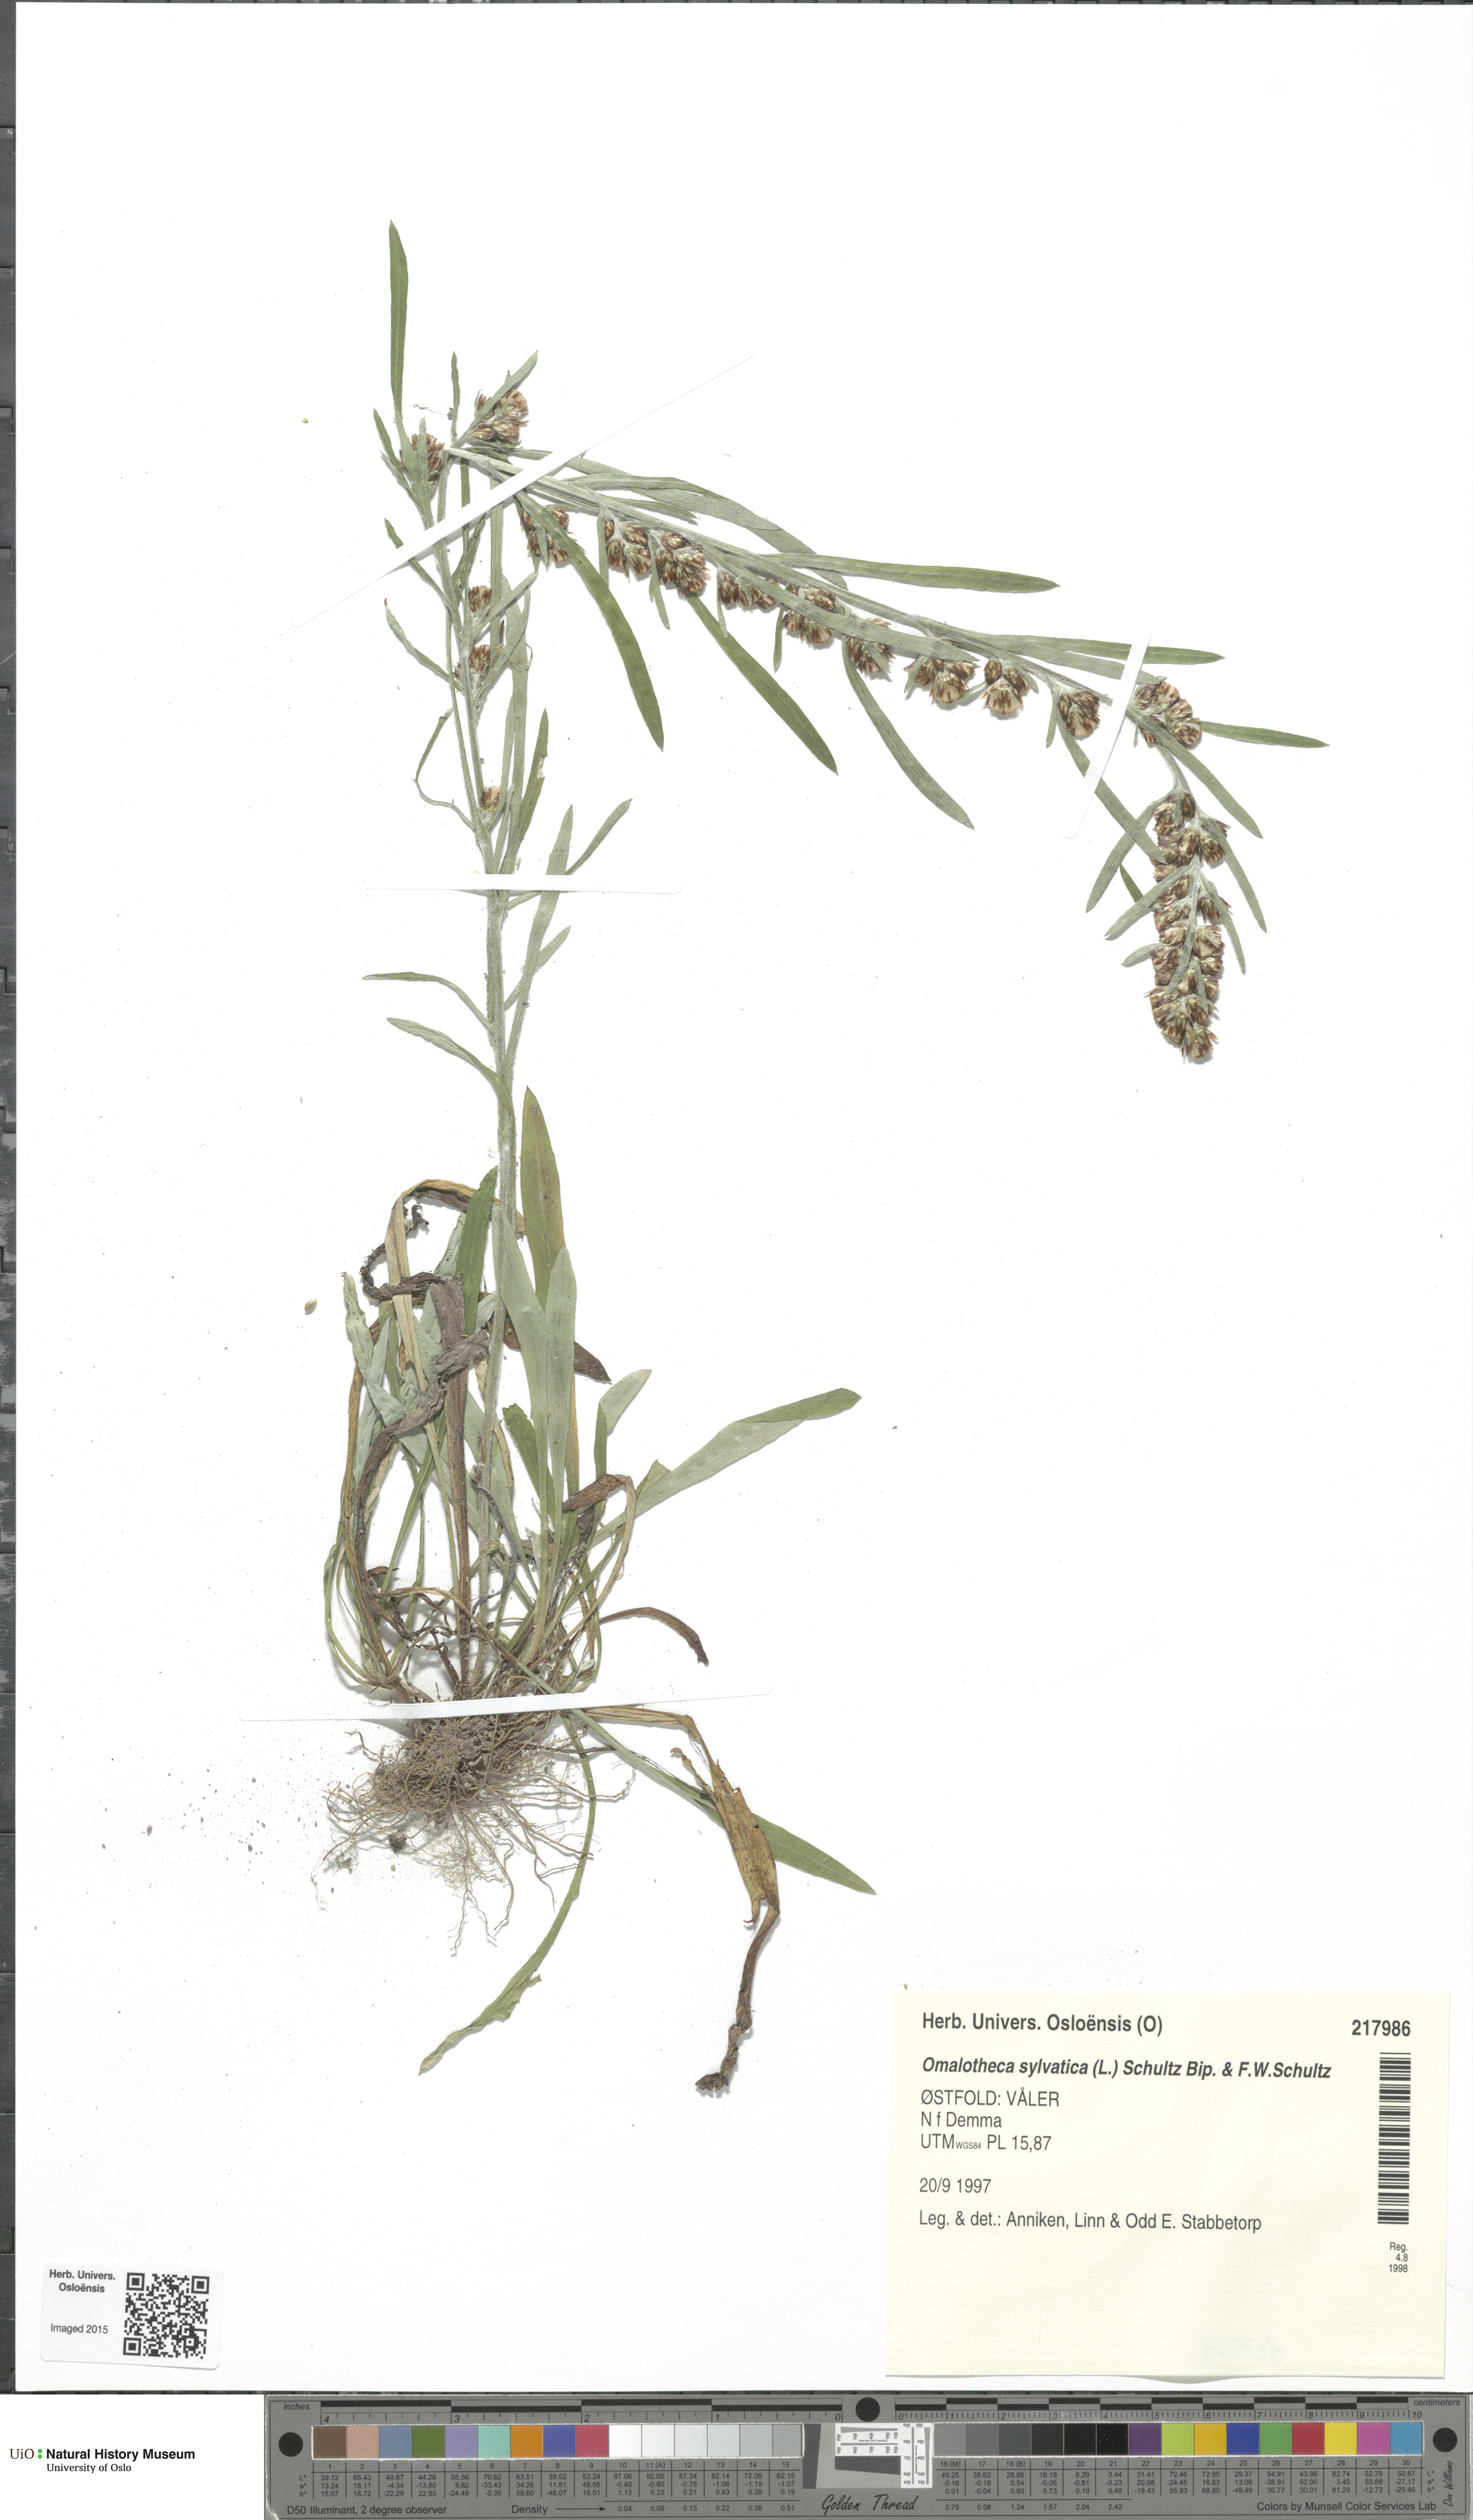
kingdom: Plantae
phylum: Tracheophyta
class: Magnoliopsida
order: Asterales
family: Asteraceae
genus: Omalotheca
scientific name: Omalotheca sylvatica
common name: Heath cudweed
